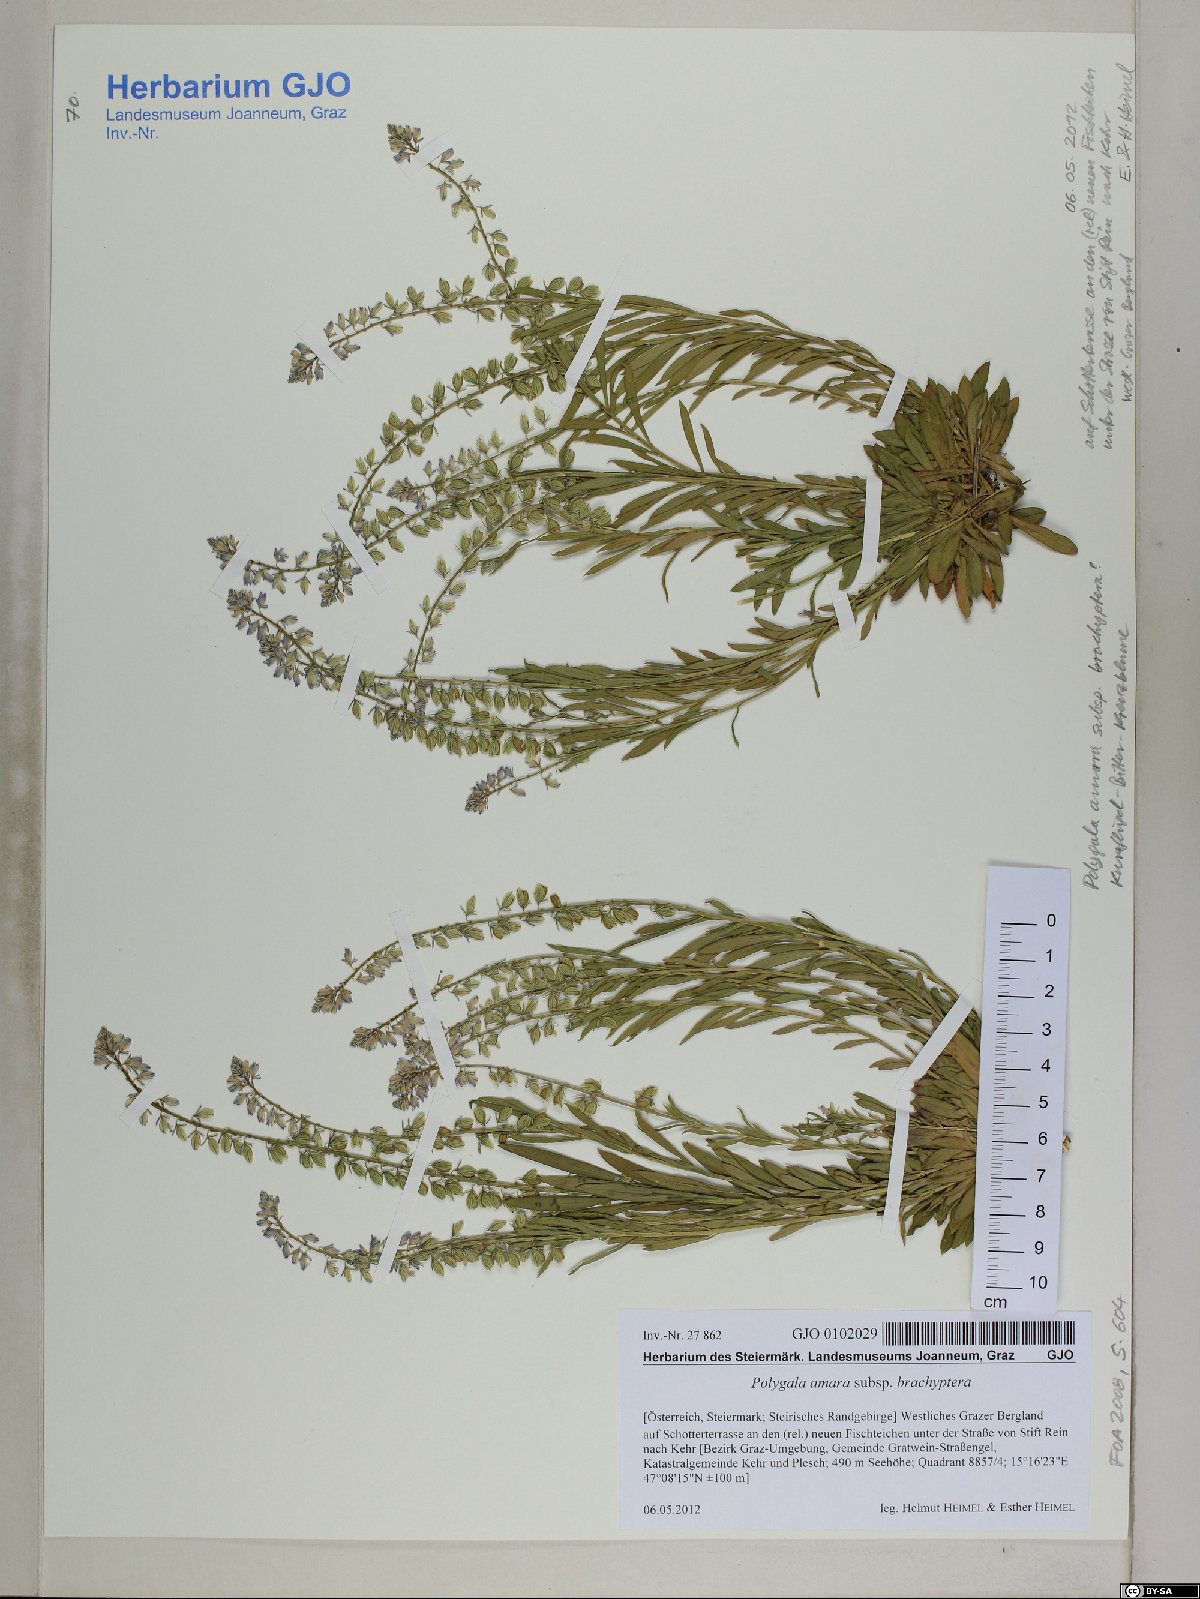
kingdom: Plantae
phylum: Tracheophyta
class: Magnoliopsida
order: Fabales
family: Polygalaceae
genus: Polygala
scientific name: Polygala amara
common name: Milkwort
